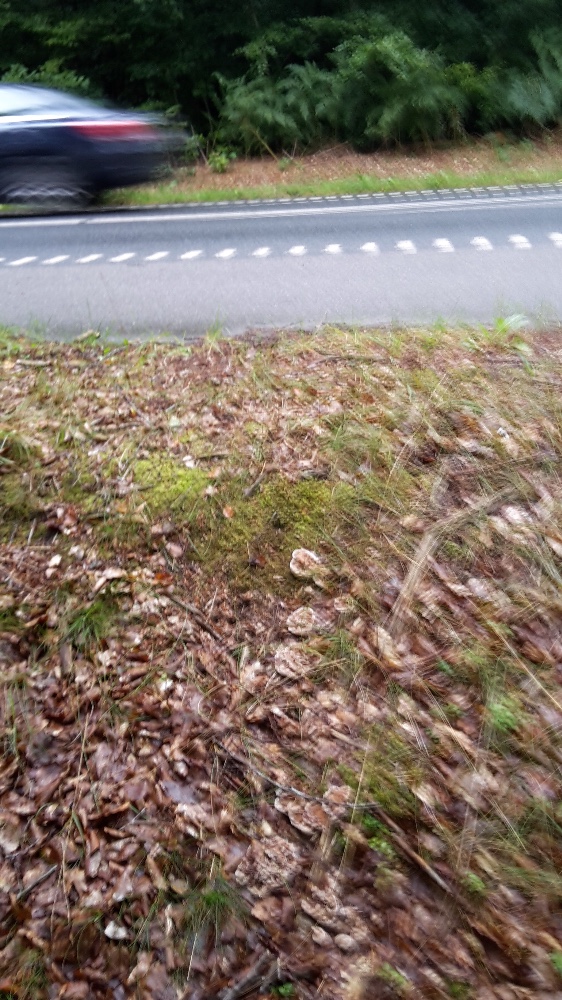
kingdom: Fungi
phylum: Basidiomycota
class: Agaricomycetes
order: Thelephorales
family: Bankeraceae
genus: Hydnellum
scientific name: Hydnellum concrescens
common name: bæltet korkpigsvamp
